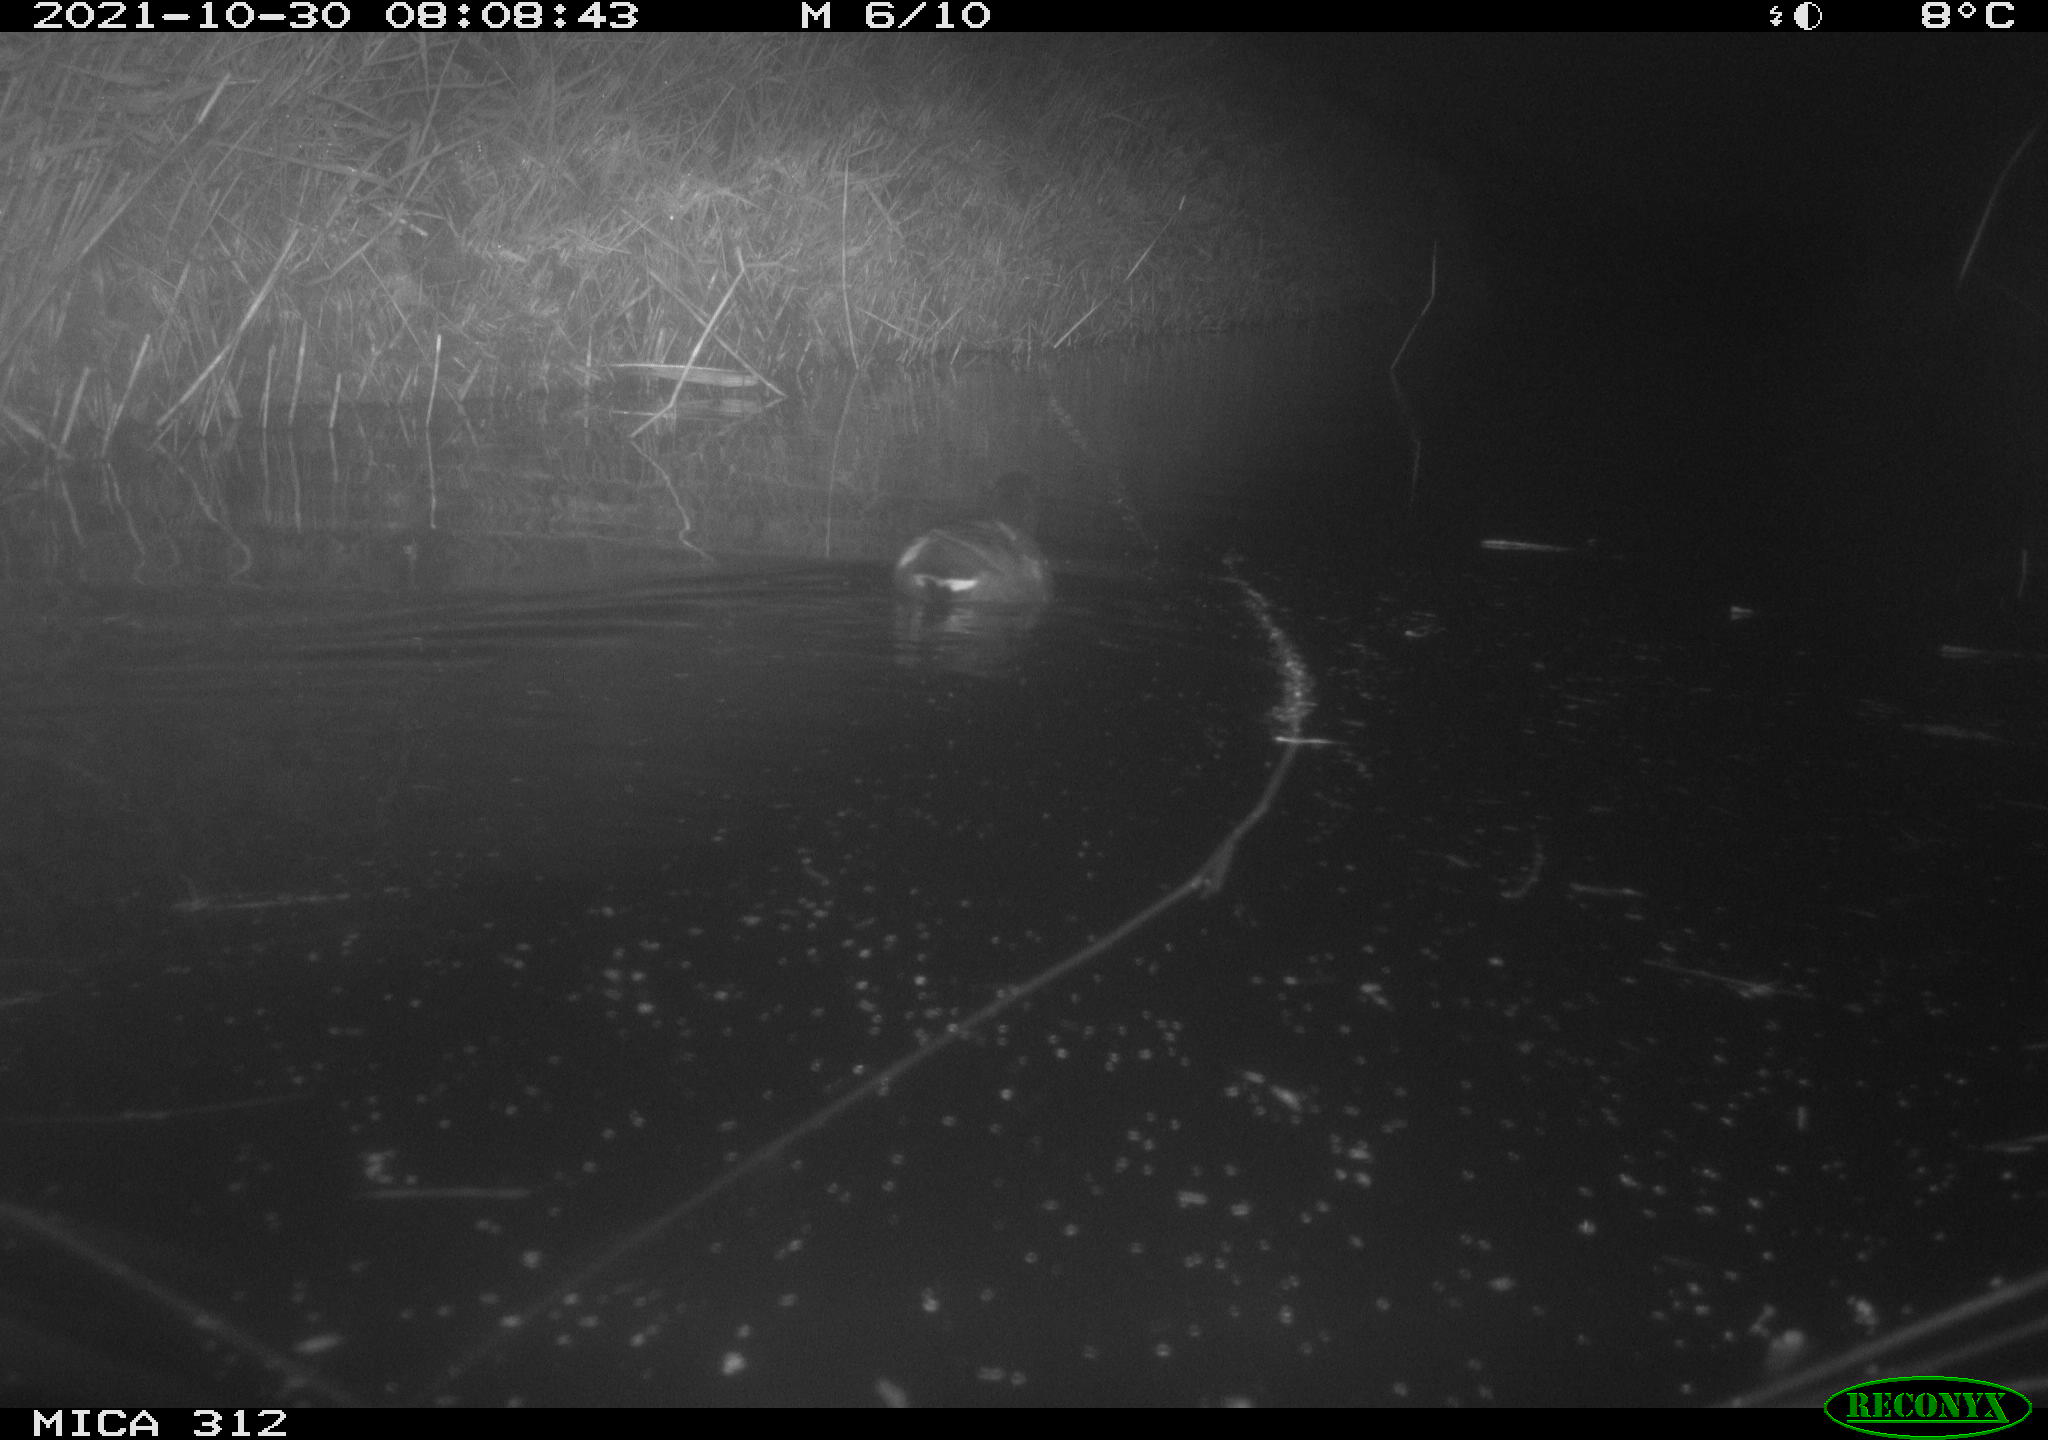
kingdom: Animalia
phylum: Chordata
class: Aves
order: Gruiformes
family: Rallidae
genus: Gallinula
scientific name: Gallinula chloropus
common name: Common moorhen
